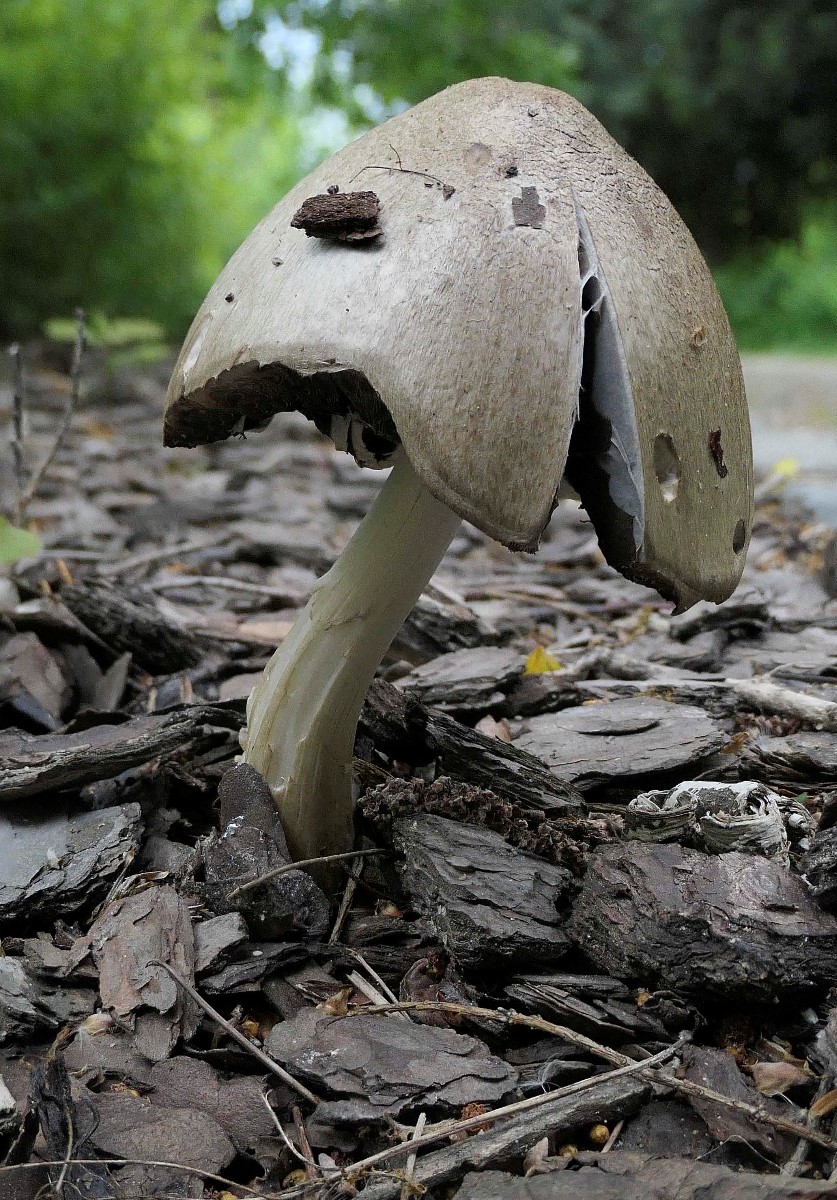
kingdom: Fungi
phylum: Basidiomycota
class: Agaricomycetes
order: Agaricales
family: Psathyrellaceae
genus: Coprinopsis
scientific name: Coprinopsis atramentaria
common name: almindelig blækhat
